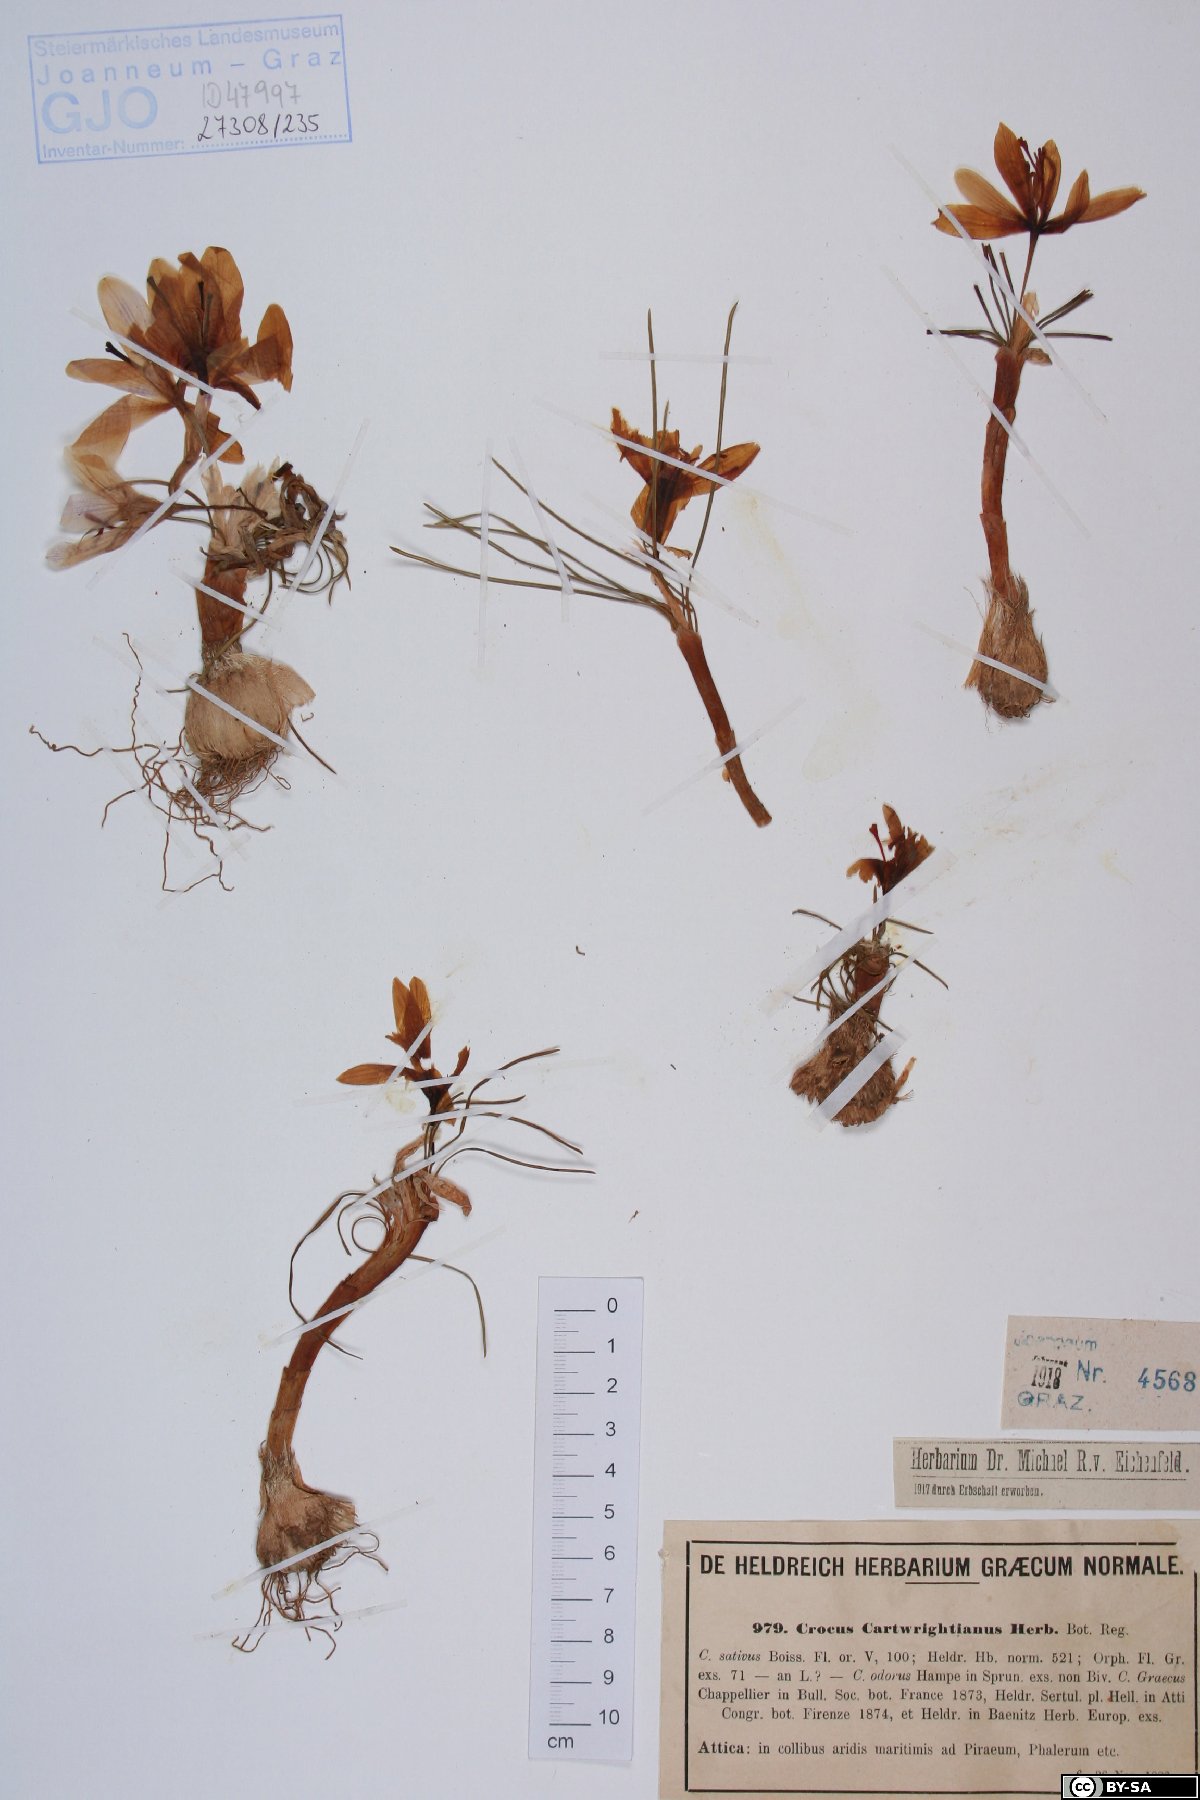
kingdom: Plantae
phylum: Tracheophyta
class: Liliopsida
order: Asparagales
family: Iridaceae
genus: Crocus
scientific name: Crocus cartwrightianus
